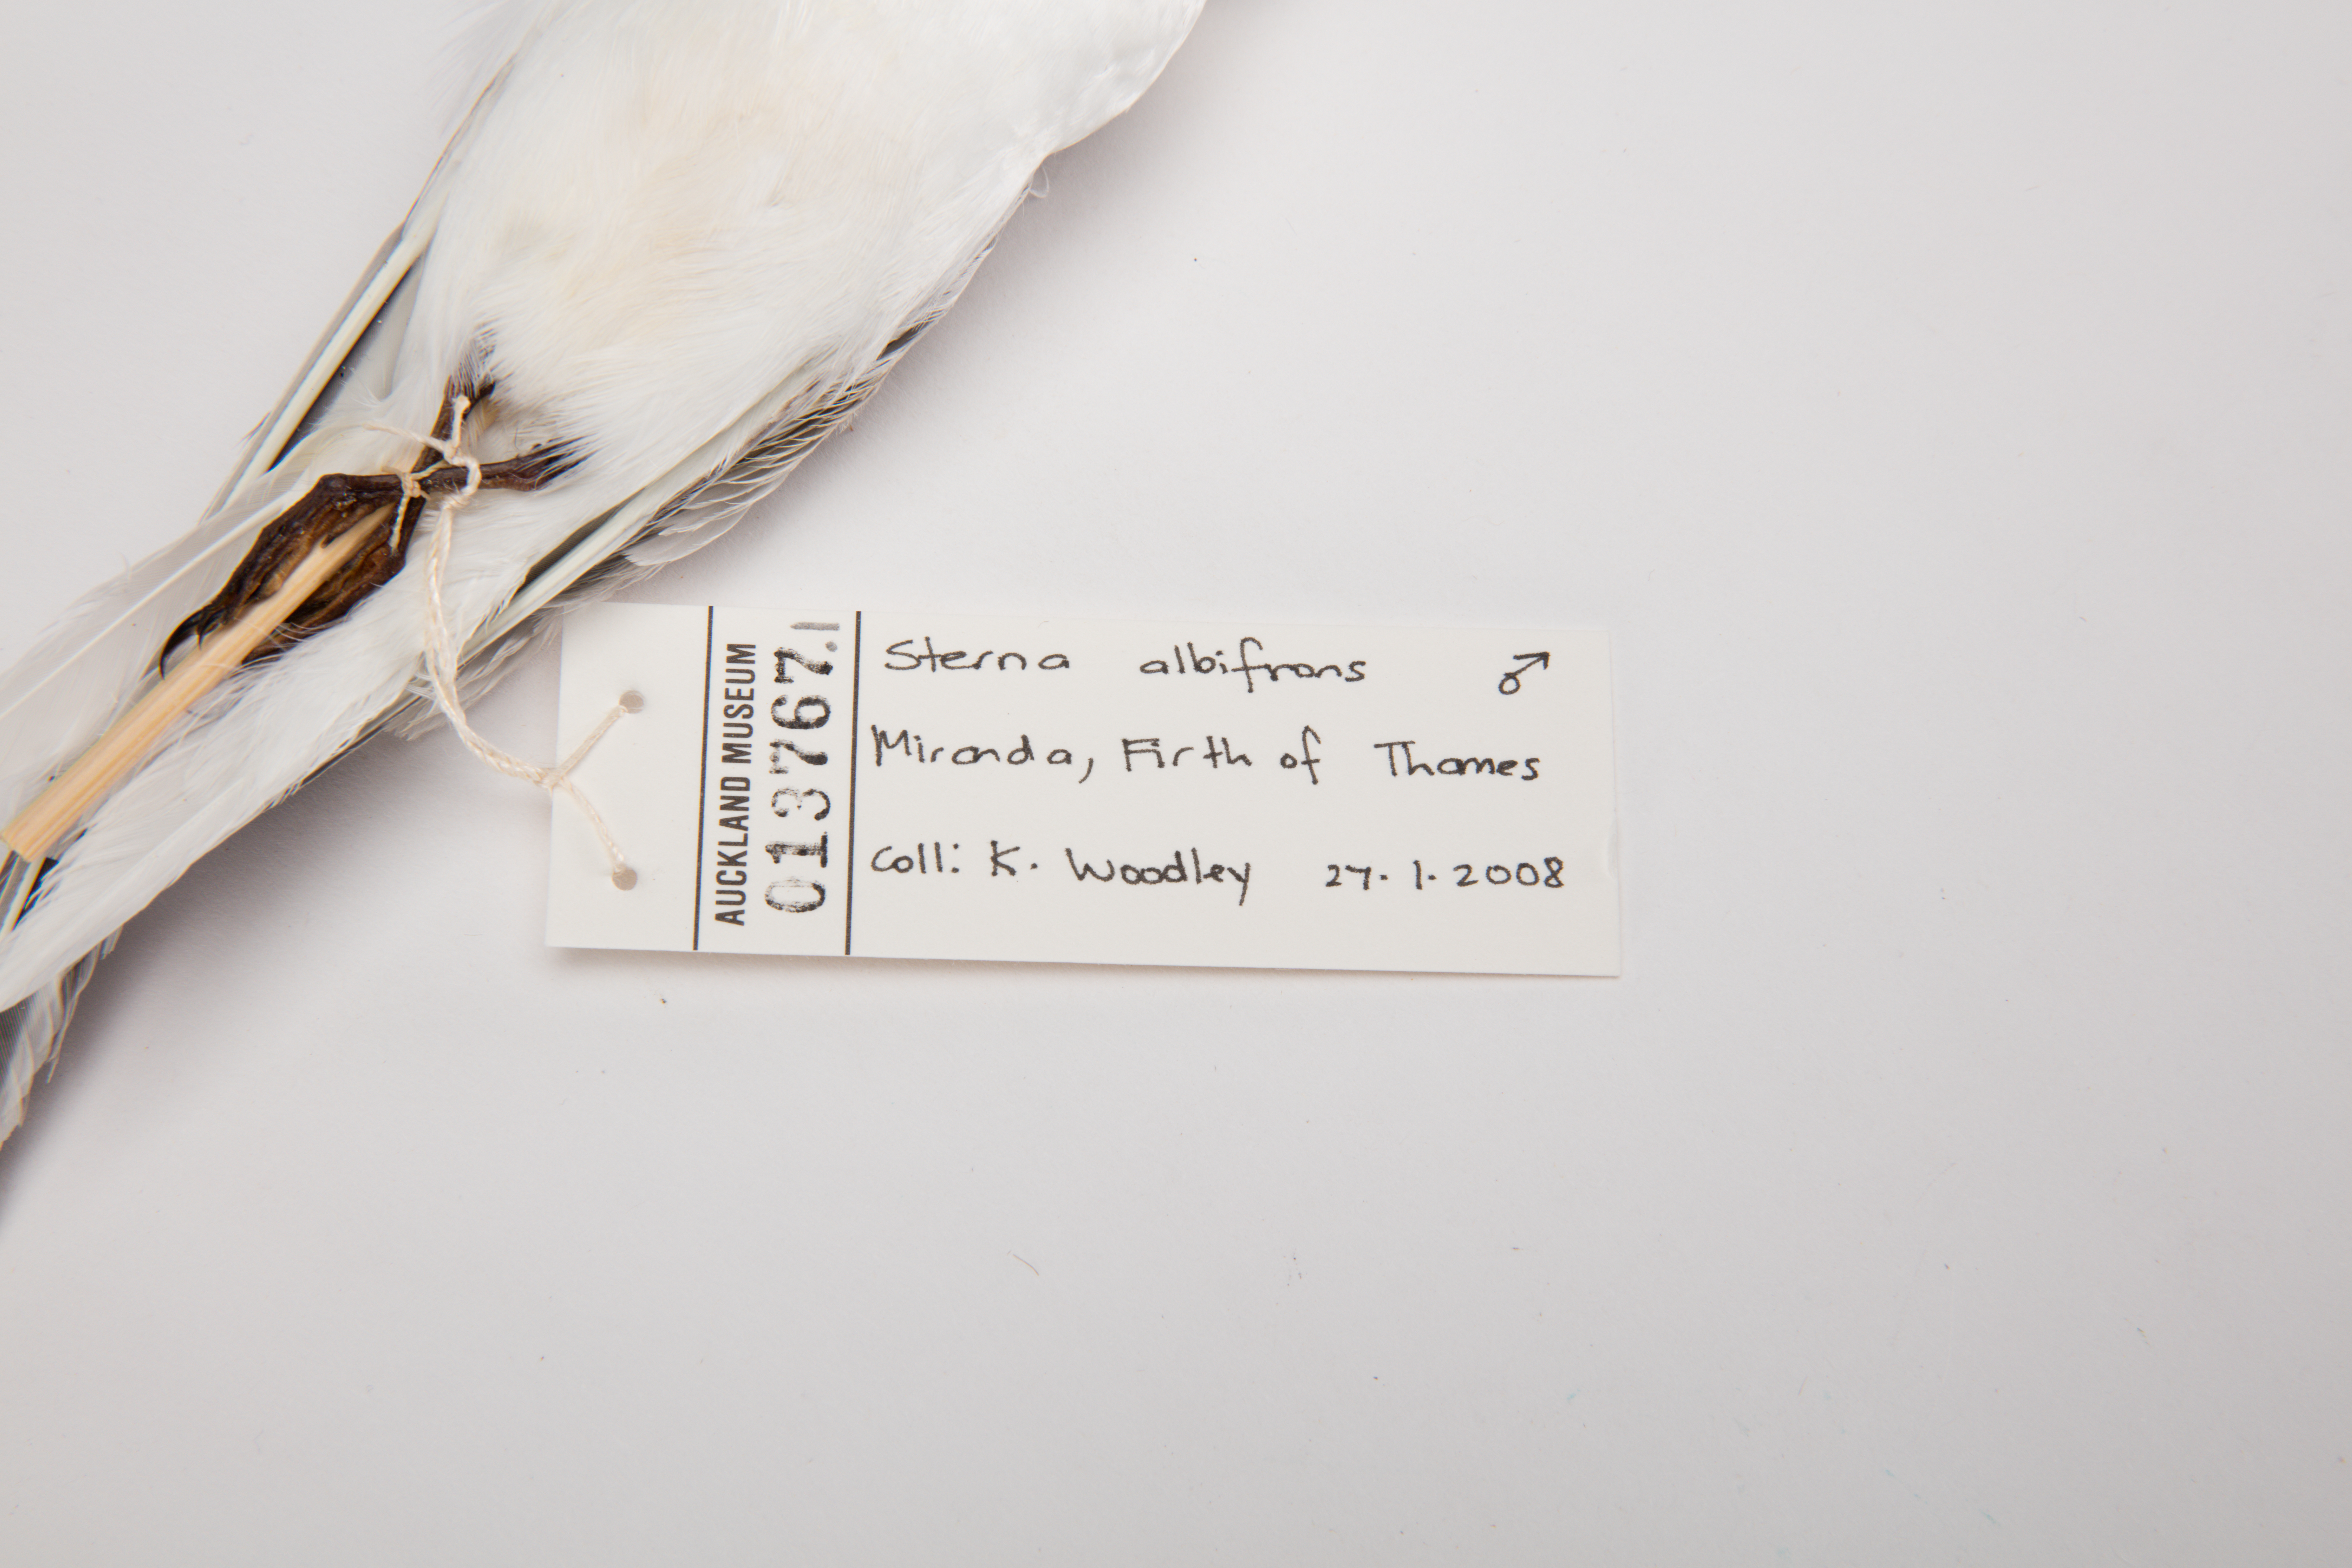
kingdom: Animalia
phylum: Chordata
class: Aves
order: Charadriiformes
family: Laridae
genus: Sternula
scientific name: Sternula albifrons
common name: Little tern
